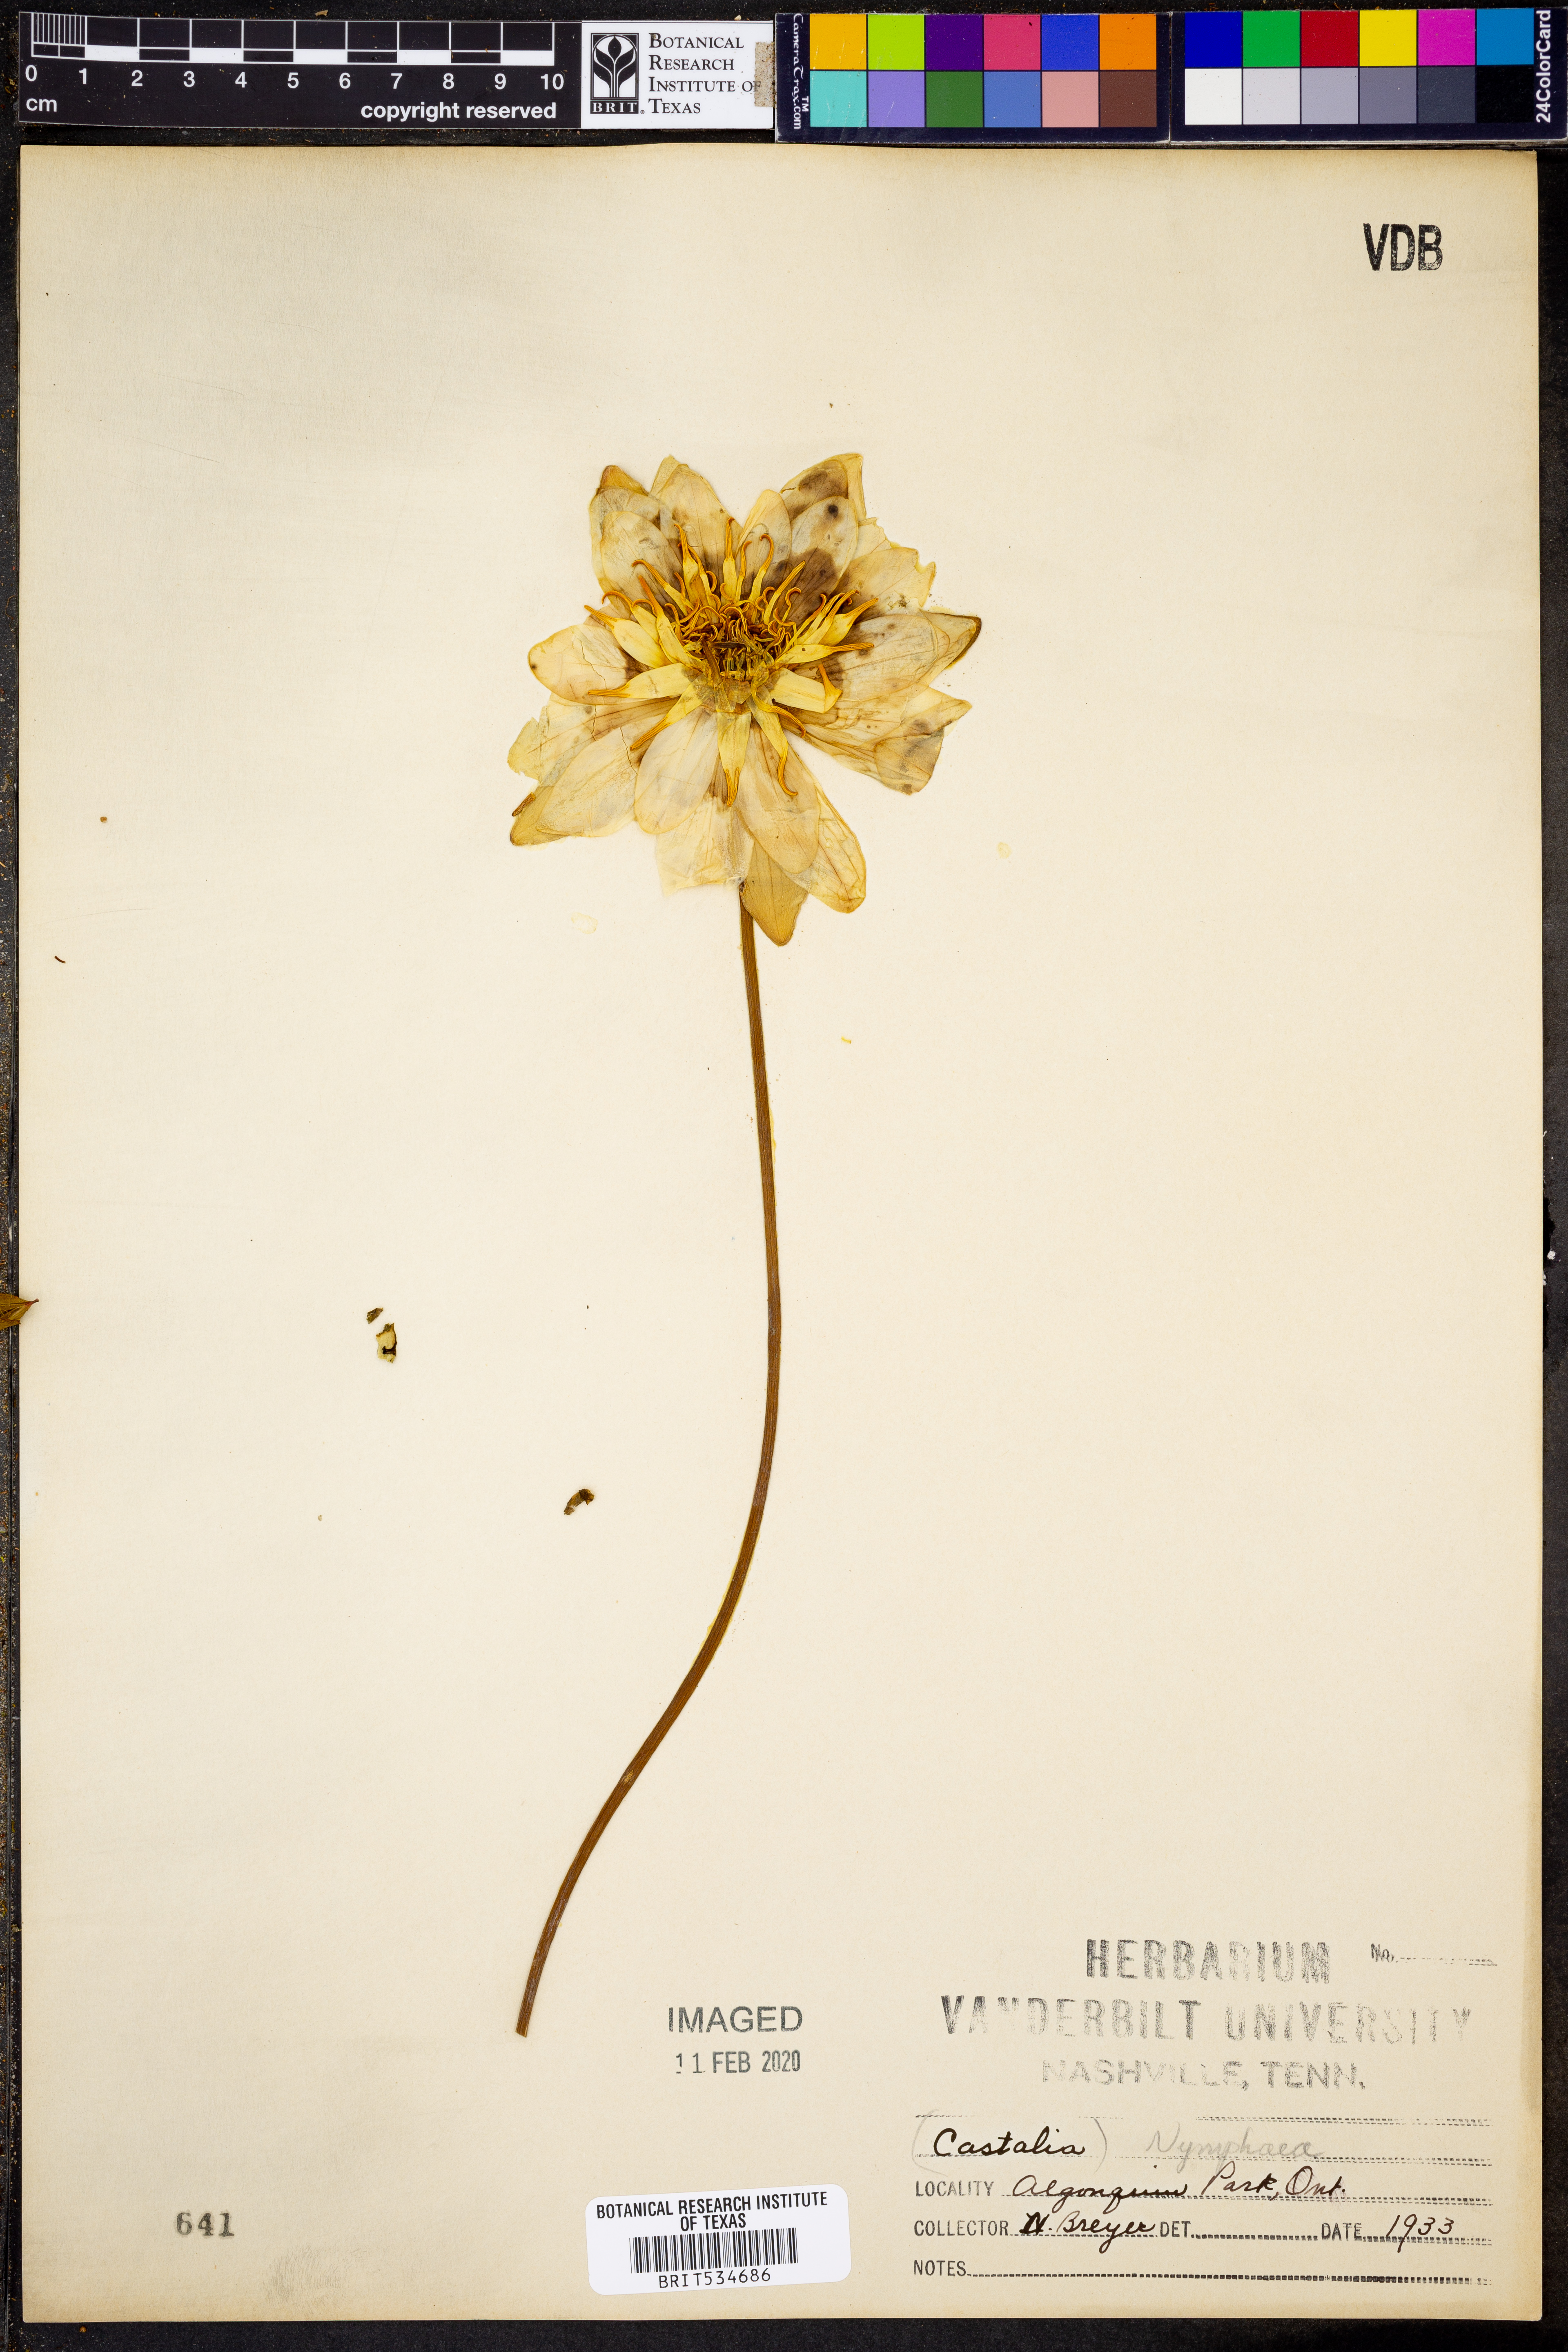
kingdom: Plantae
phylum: Tracheophyta
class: Magnoliopsida
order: Nymphaeales
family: Nymphaeaceae
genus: Nymphaea
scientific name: Nymphaea
